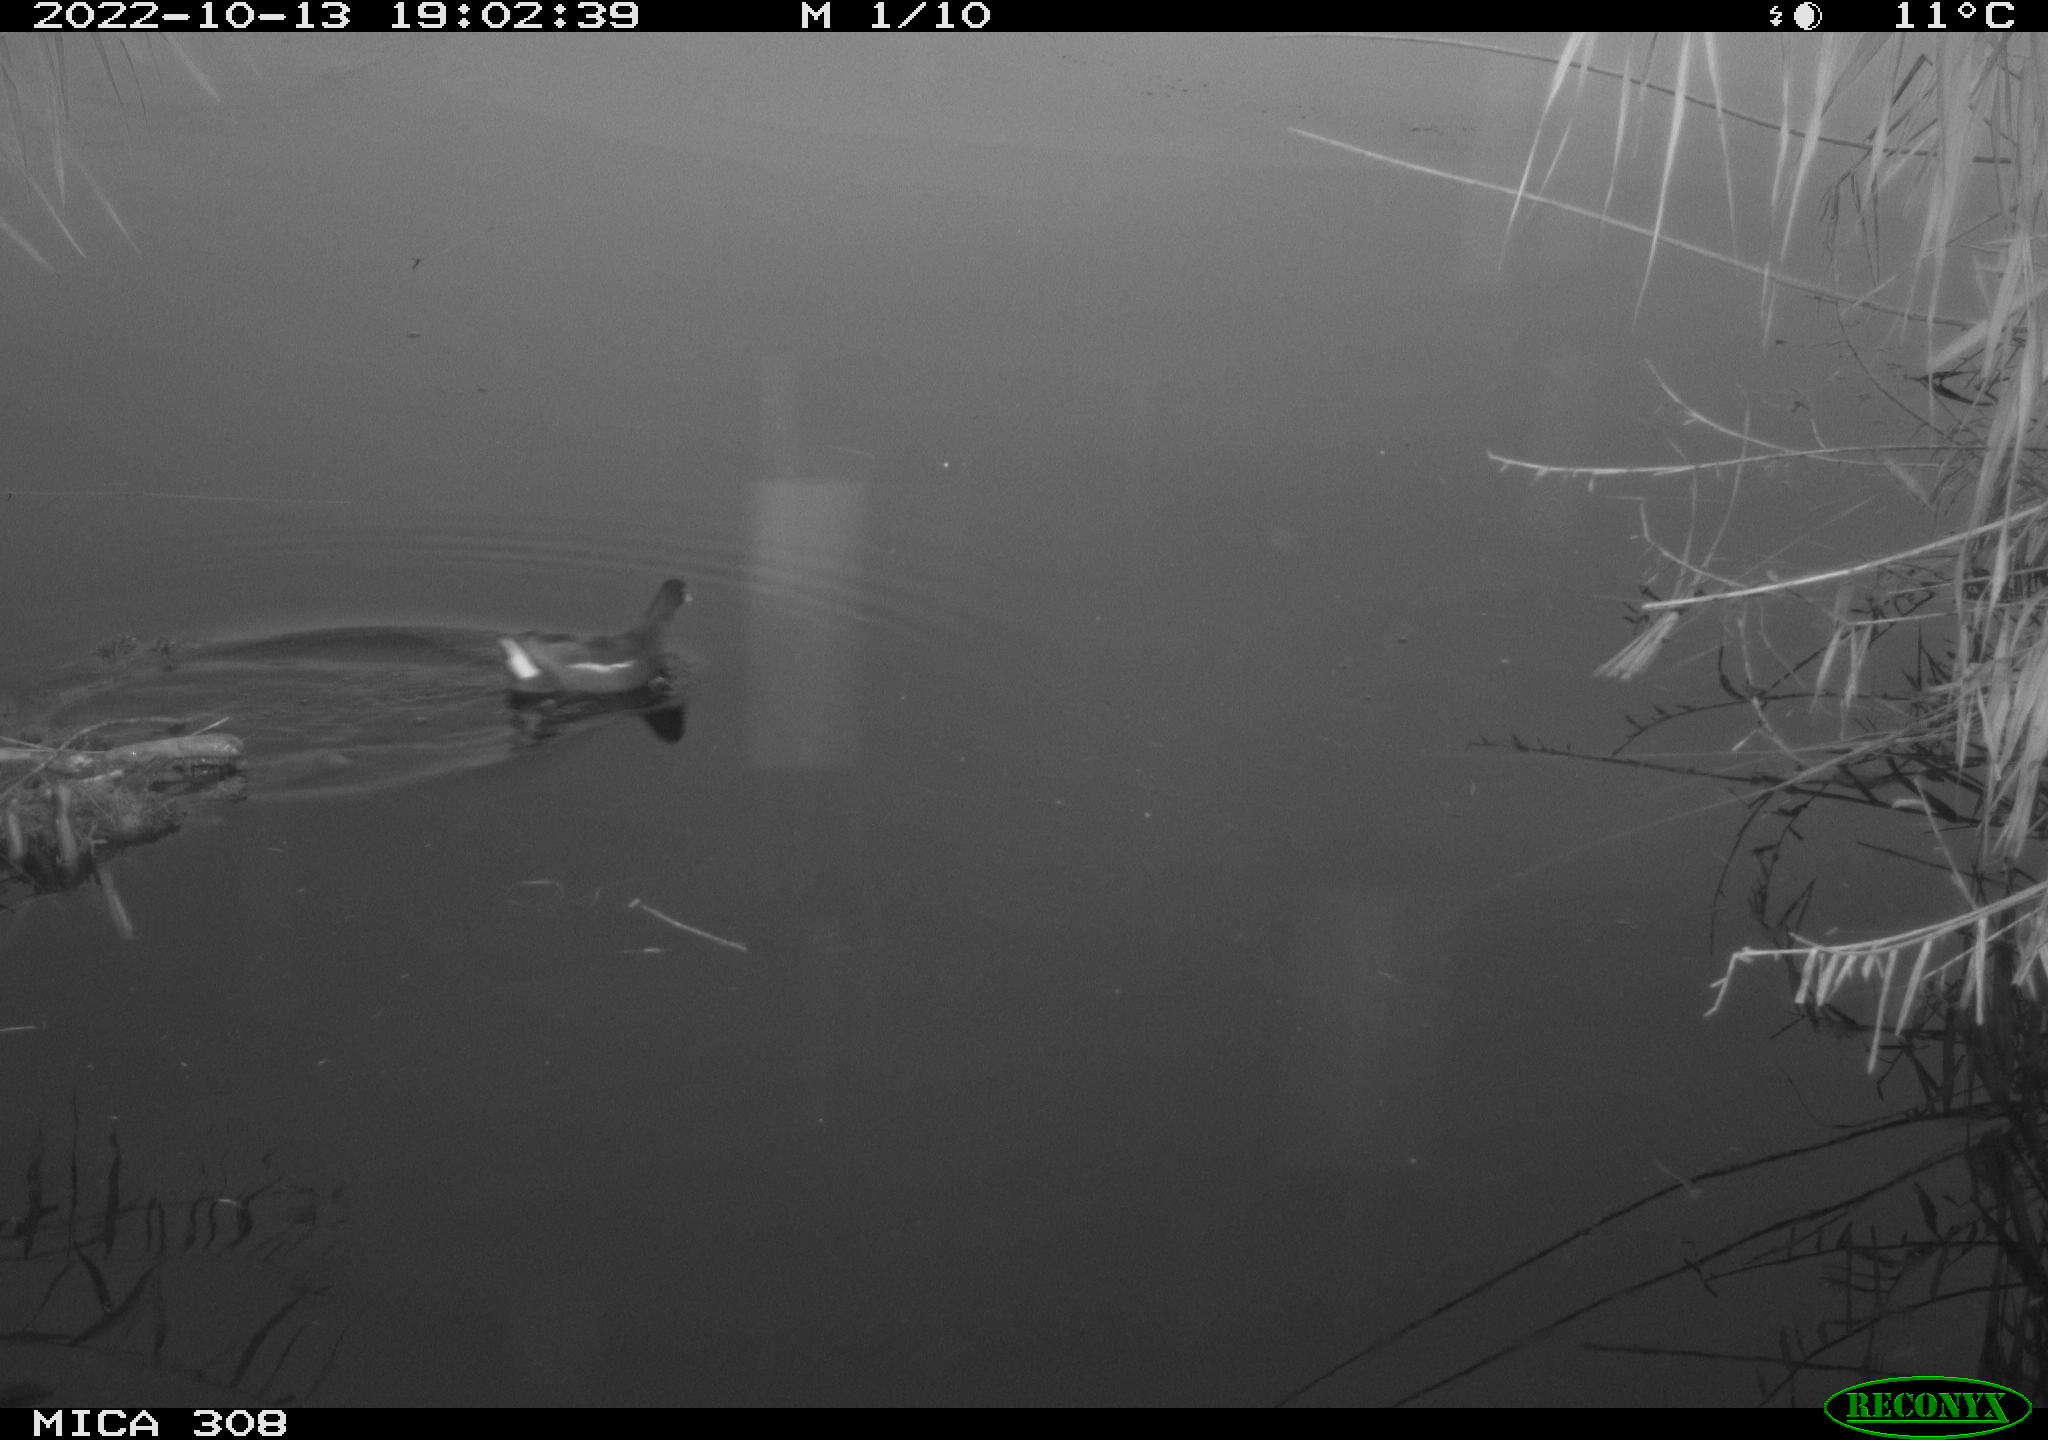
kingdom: Animalia
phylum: Chordata
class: Aves
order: Gruiformes
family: Rallidae
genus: Gallinula
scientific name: Gallinula chloropus
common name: Common moorhen
